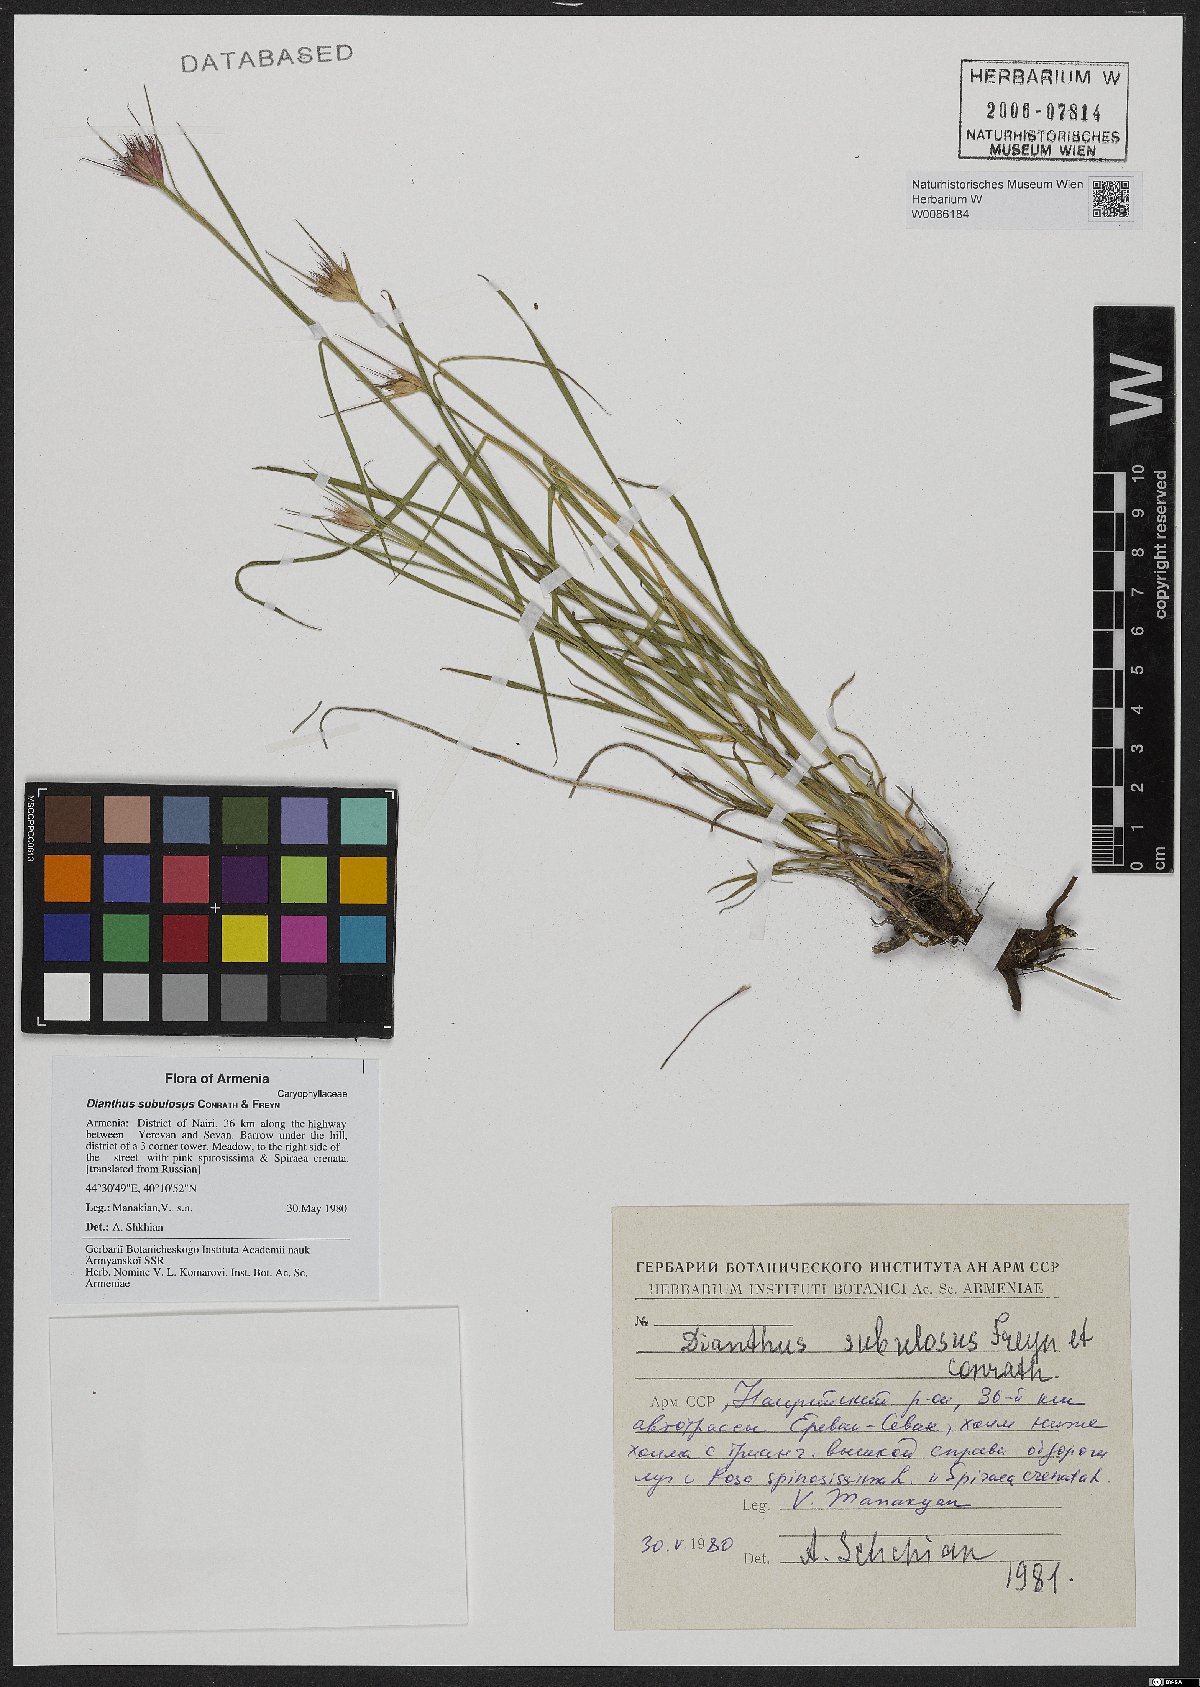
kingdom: Plantae
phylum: Tracheophyta
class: Magnoliopsida
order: Caryophyllales
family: Caryophyllaceae
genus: Dianthus
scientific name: Dianthus subulosus
